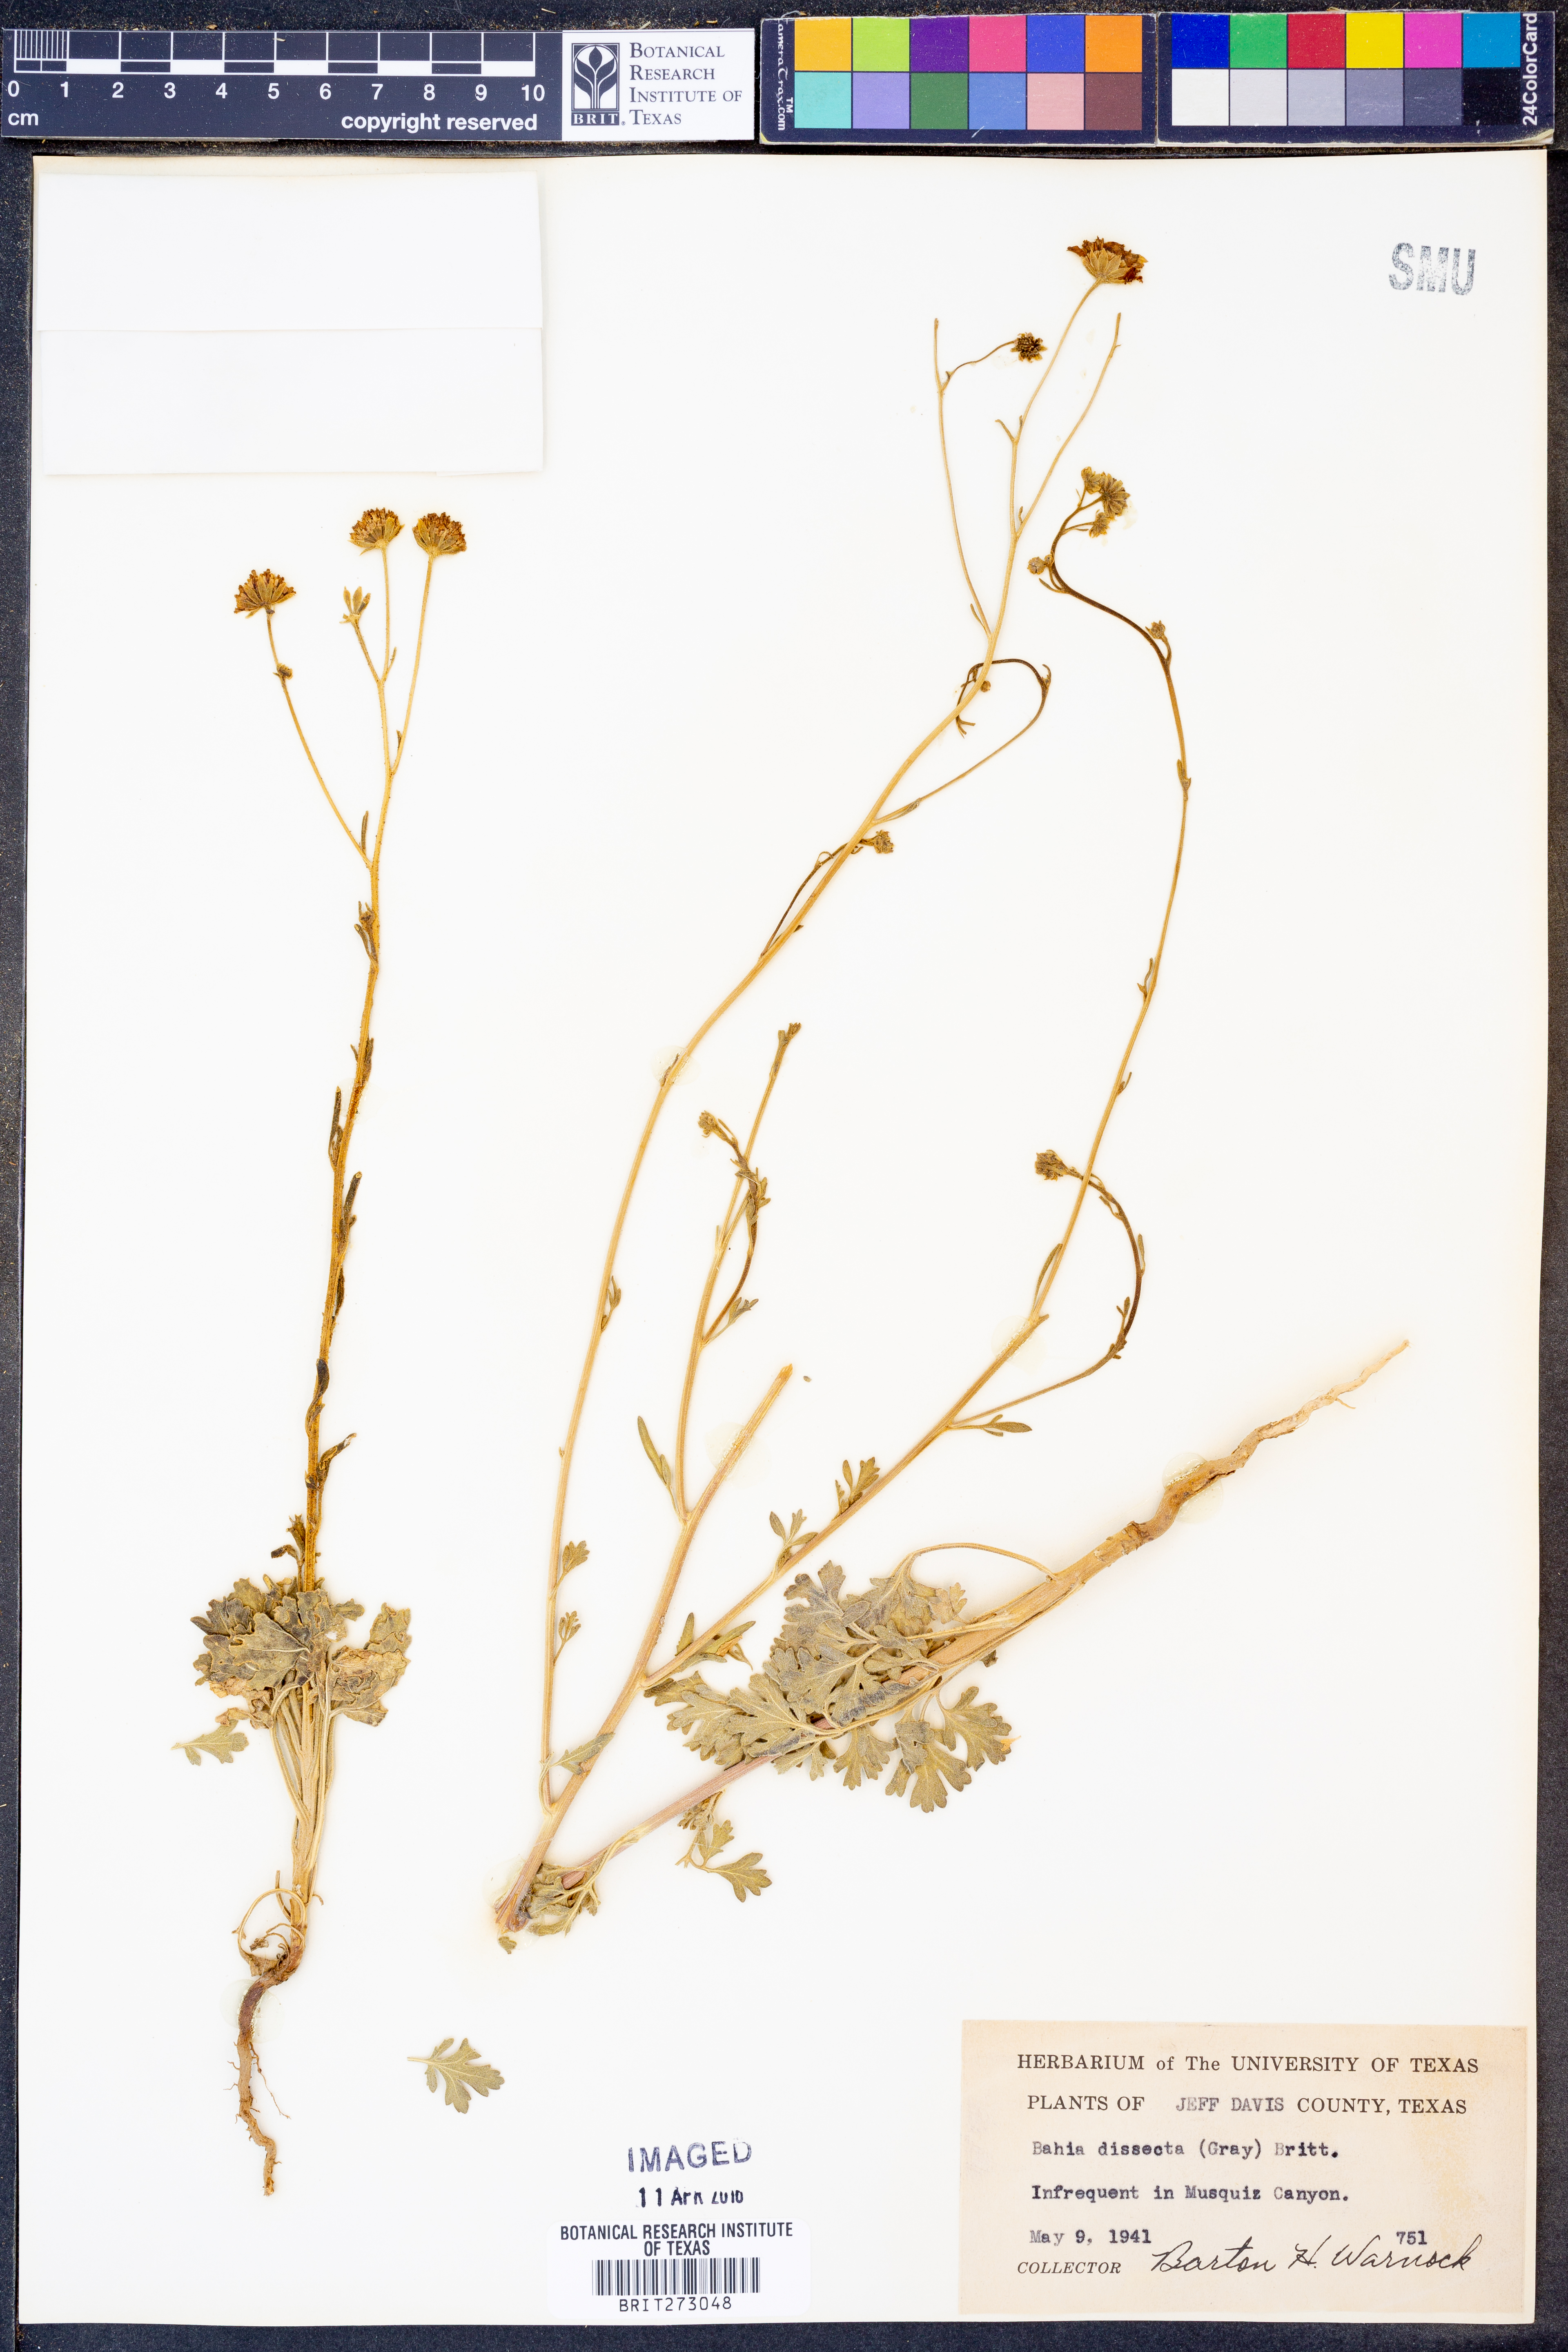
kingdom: Plantae
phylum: Tracheophyta
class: Magnoliopsida
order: Asterales
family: Asteraceae
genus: Hymenothrix
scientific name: Hymenothrix dissecta
